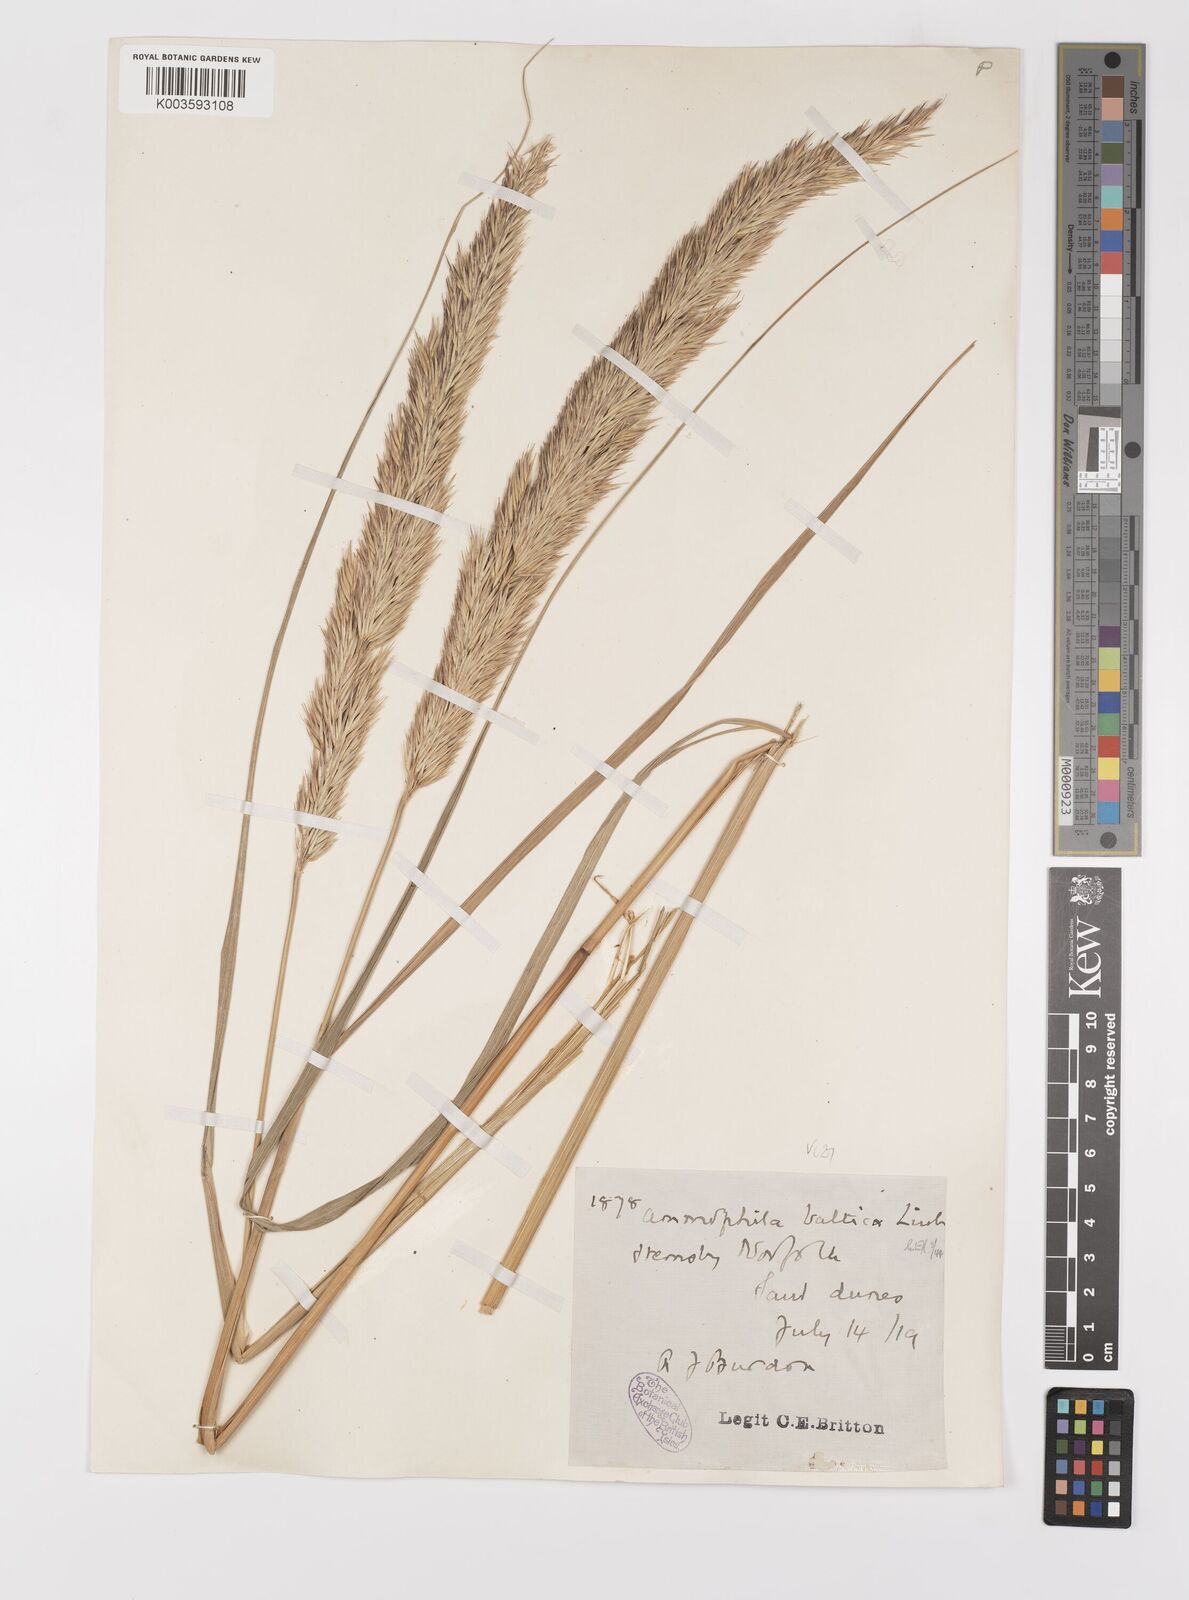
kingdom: Plantae
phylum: Tracheophyta
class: Liliopsida
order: Poales
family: Poaceae
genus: Calamagrostis
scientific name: Calamagrostis baltica
